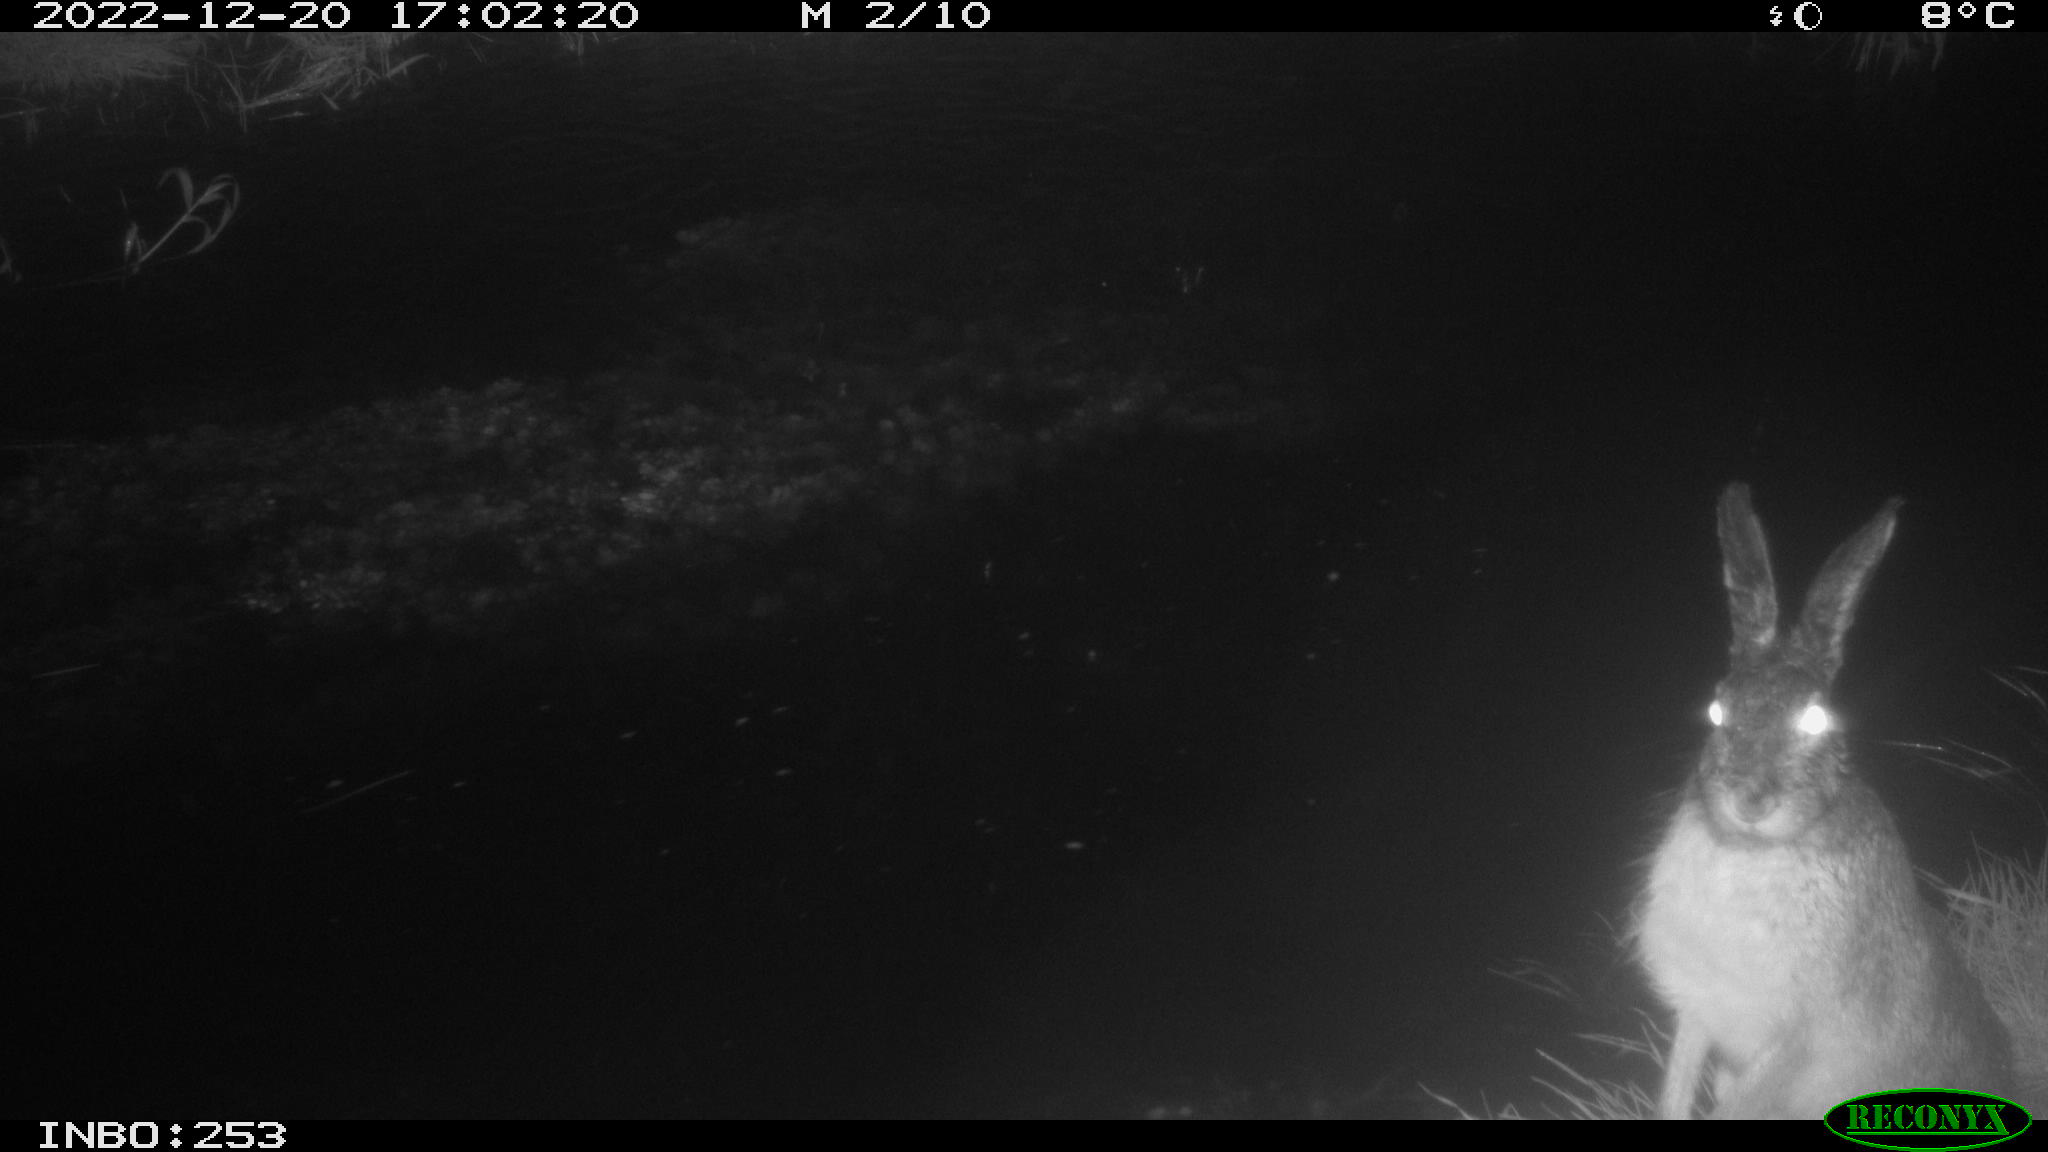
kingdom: Animalia
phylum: Chordata
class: Mammalia
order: Lagomorpha
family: Leporidae
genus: Lepus
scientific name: Lepus europaeus
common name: European hare
